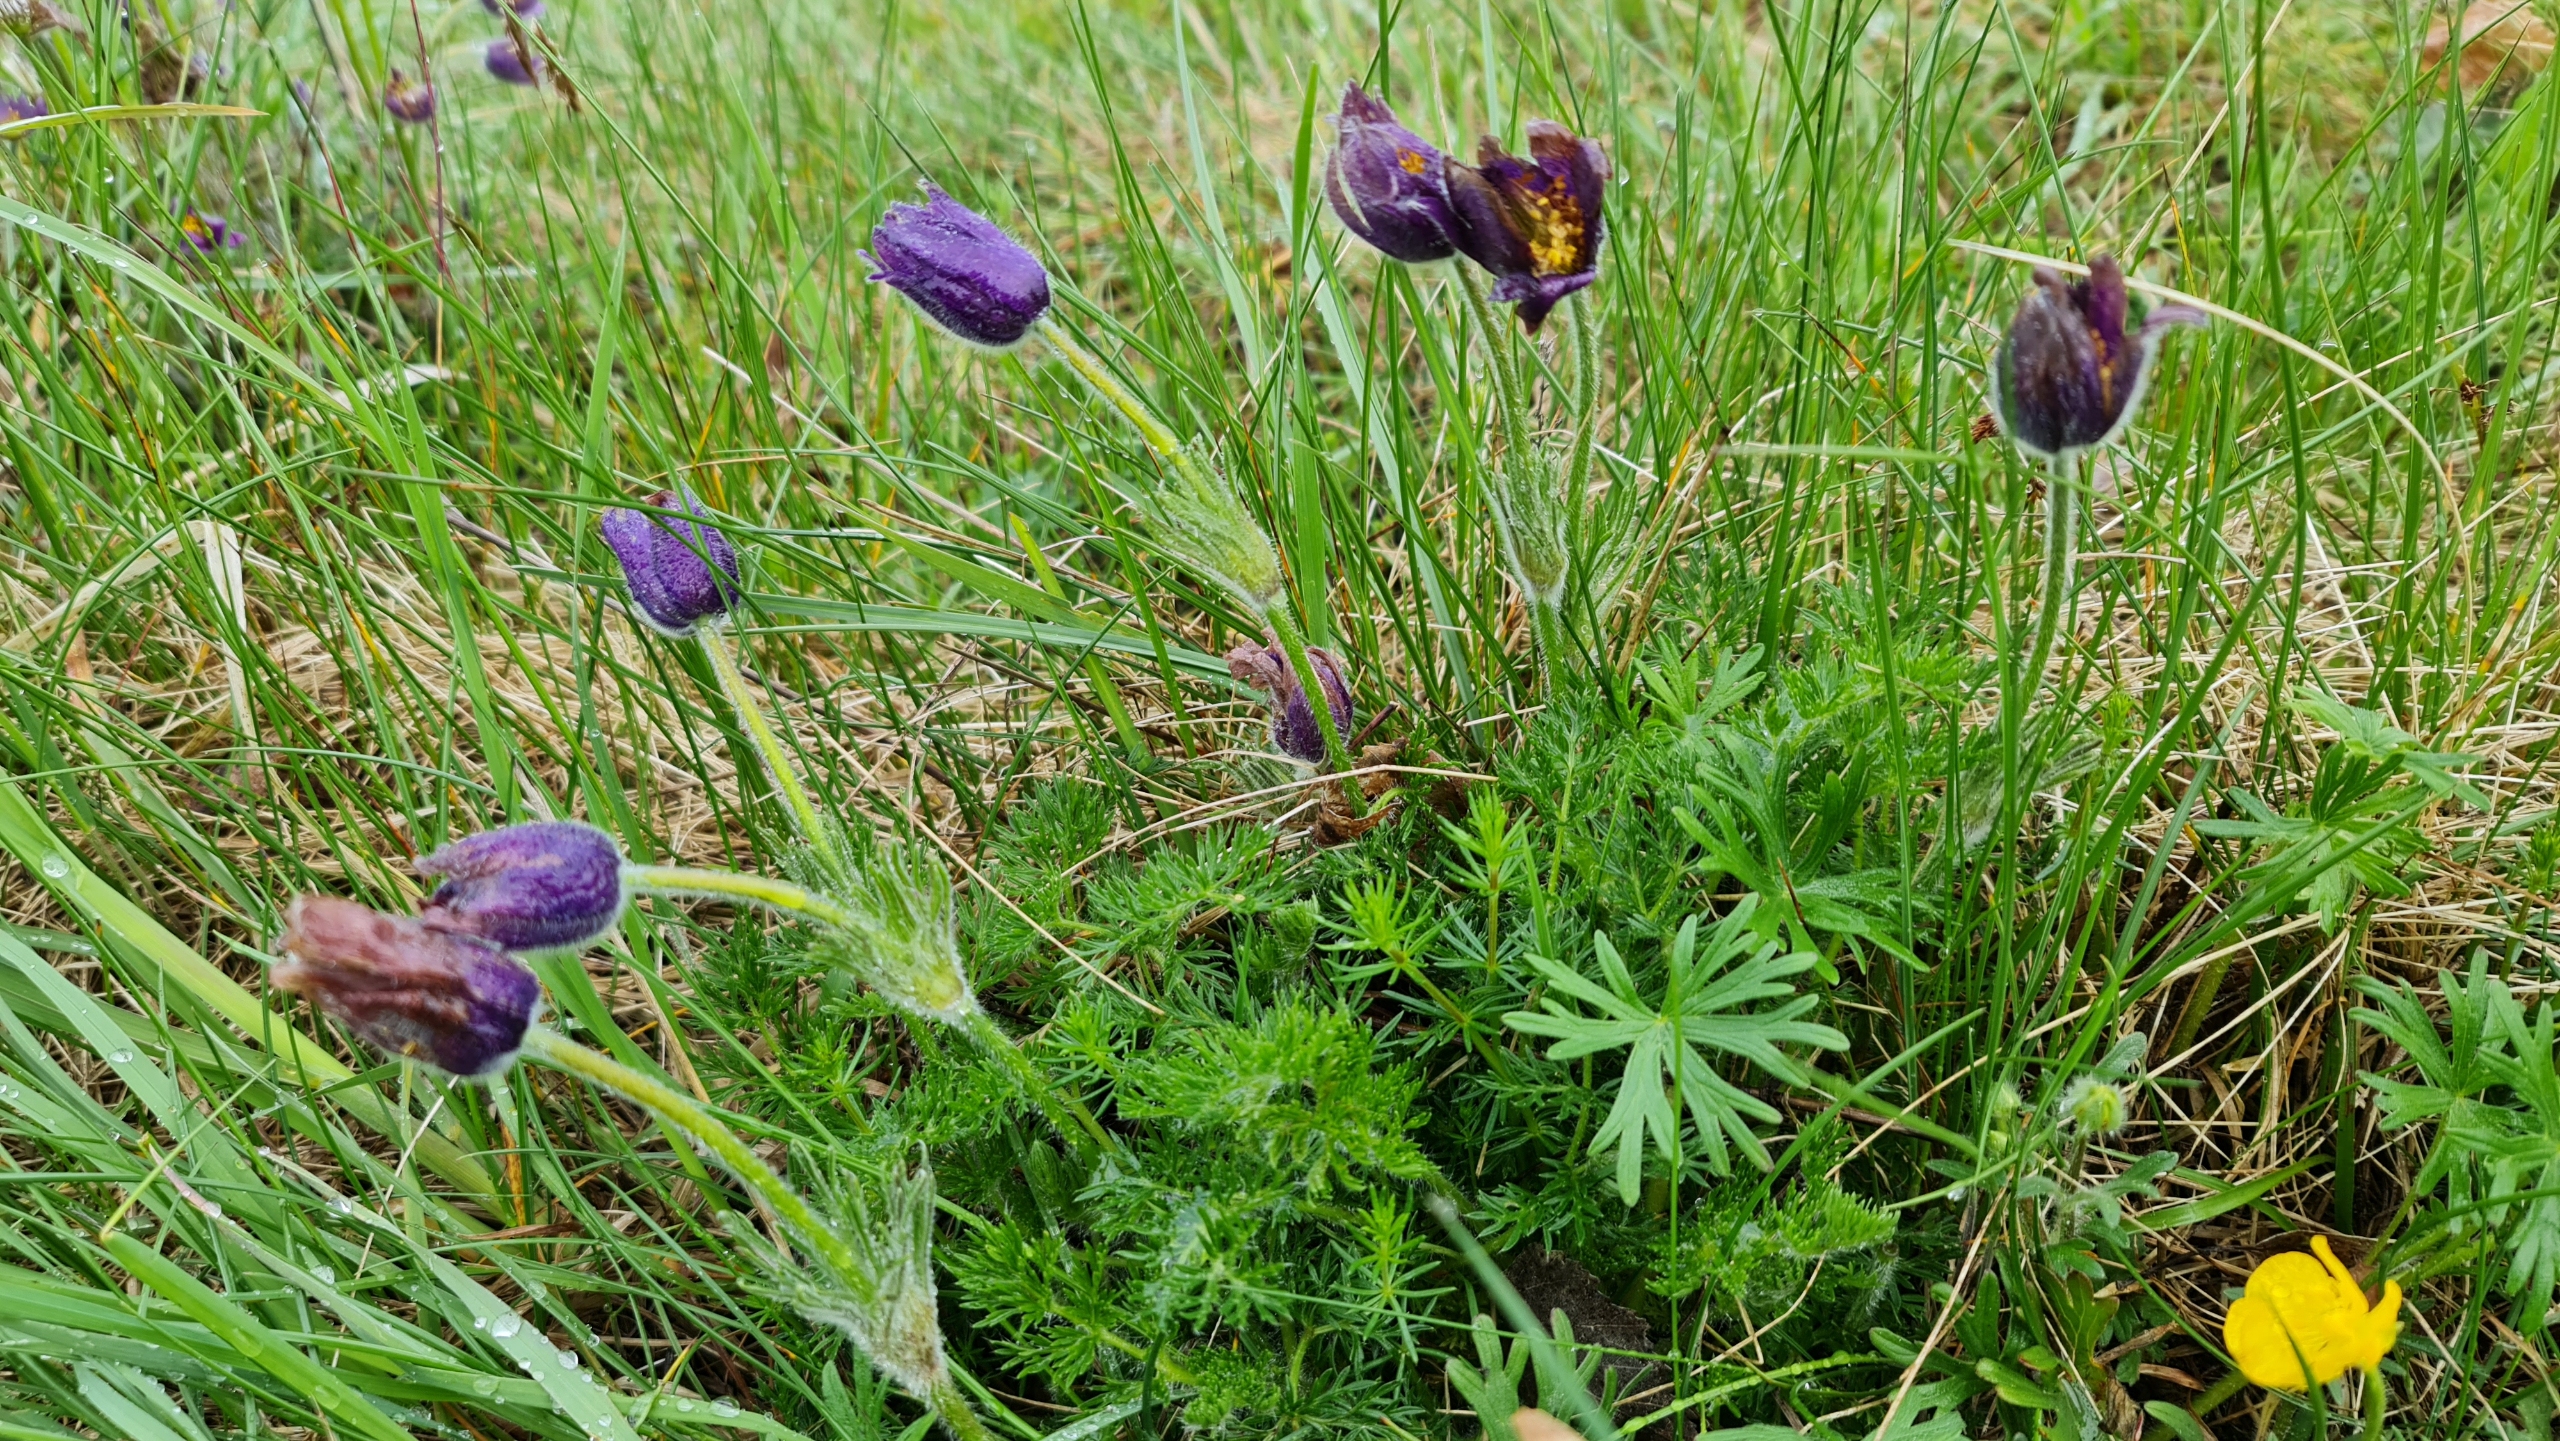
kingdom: Plantae
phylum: Tracheophyta
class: Magnoliopsida
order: Ranunculales
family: Ranunculaceae
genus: Pulsatilla
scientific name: Pulsatilla vulgaris
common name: Opret kobjælde
